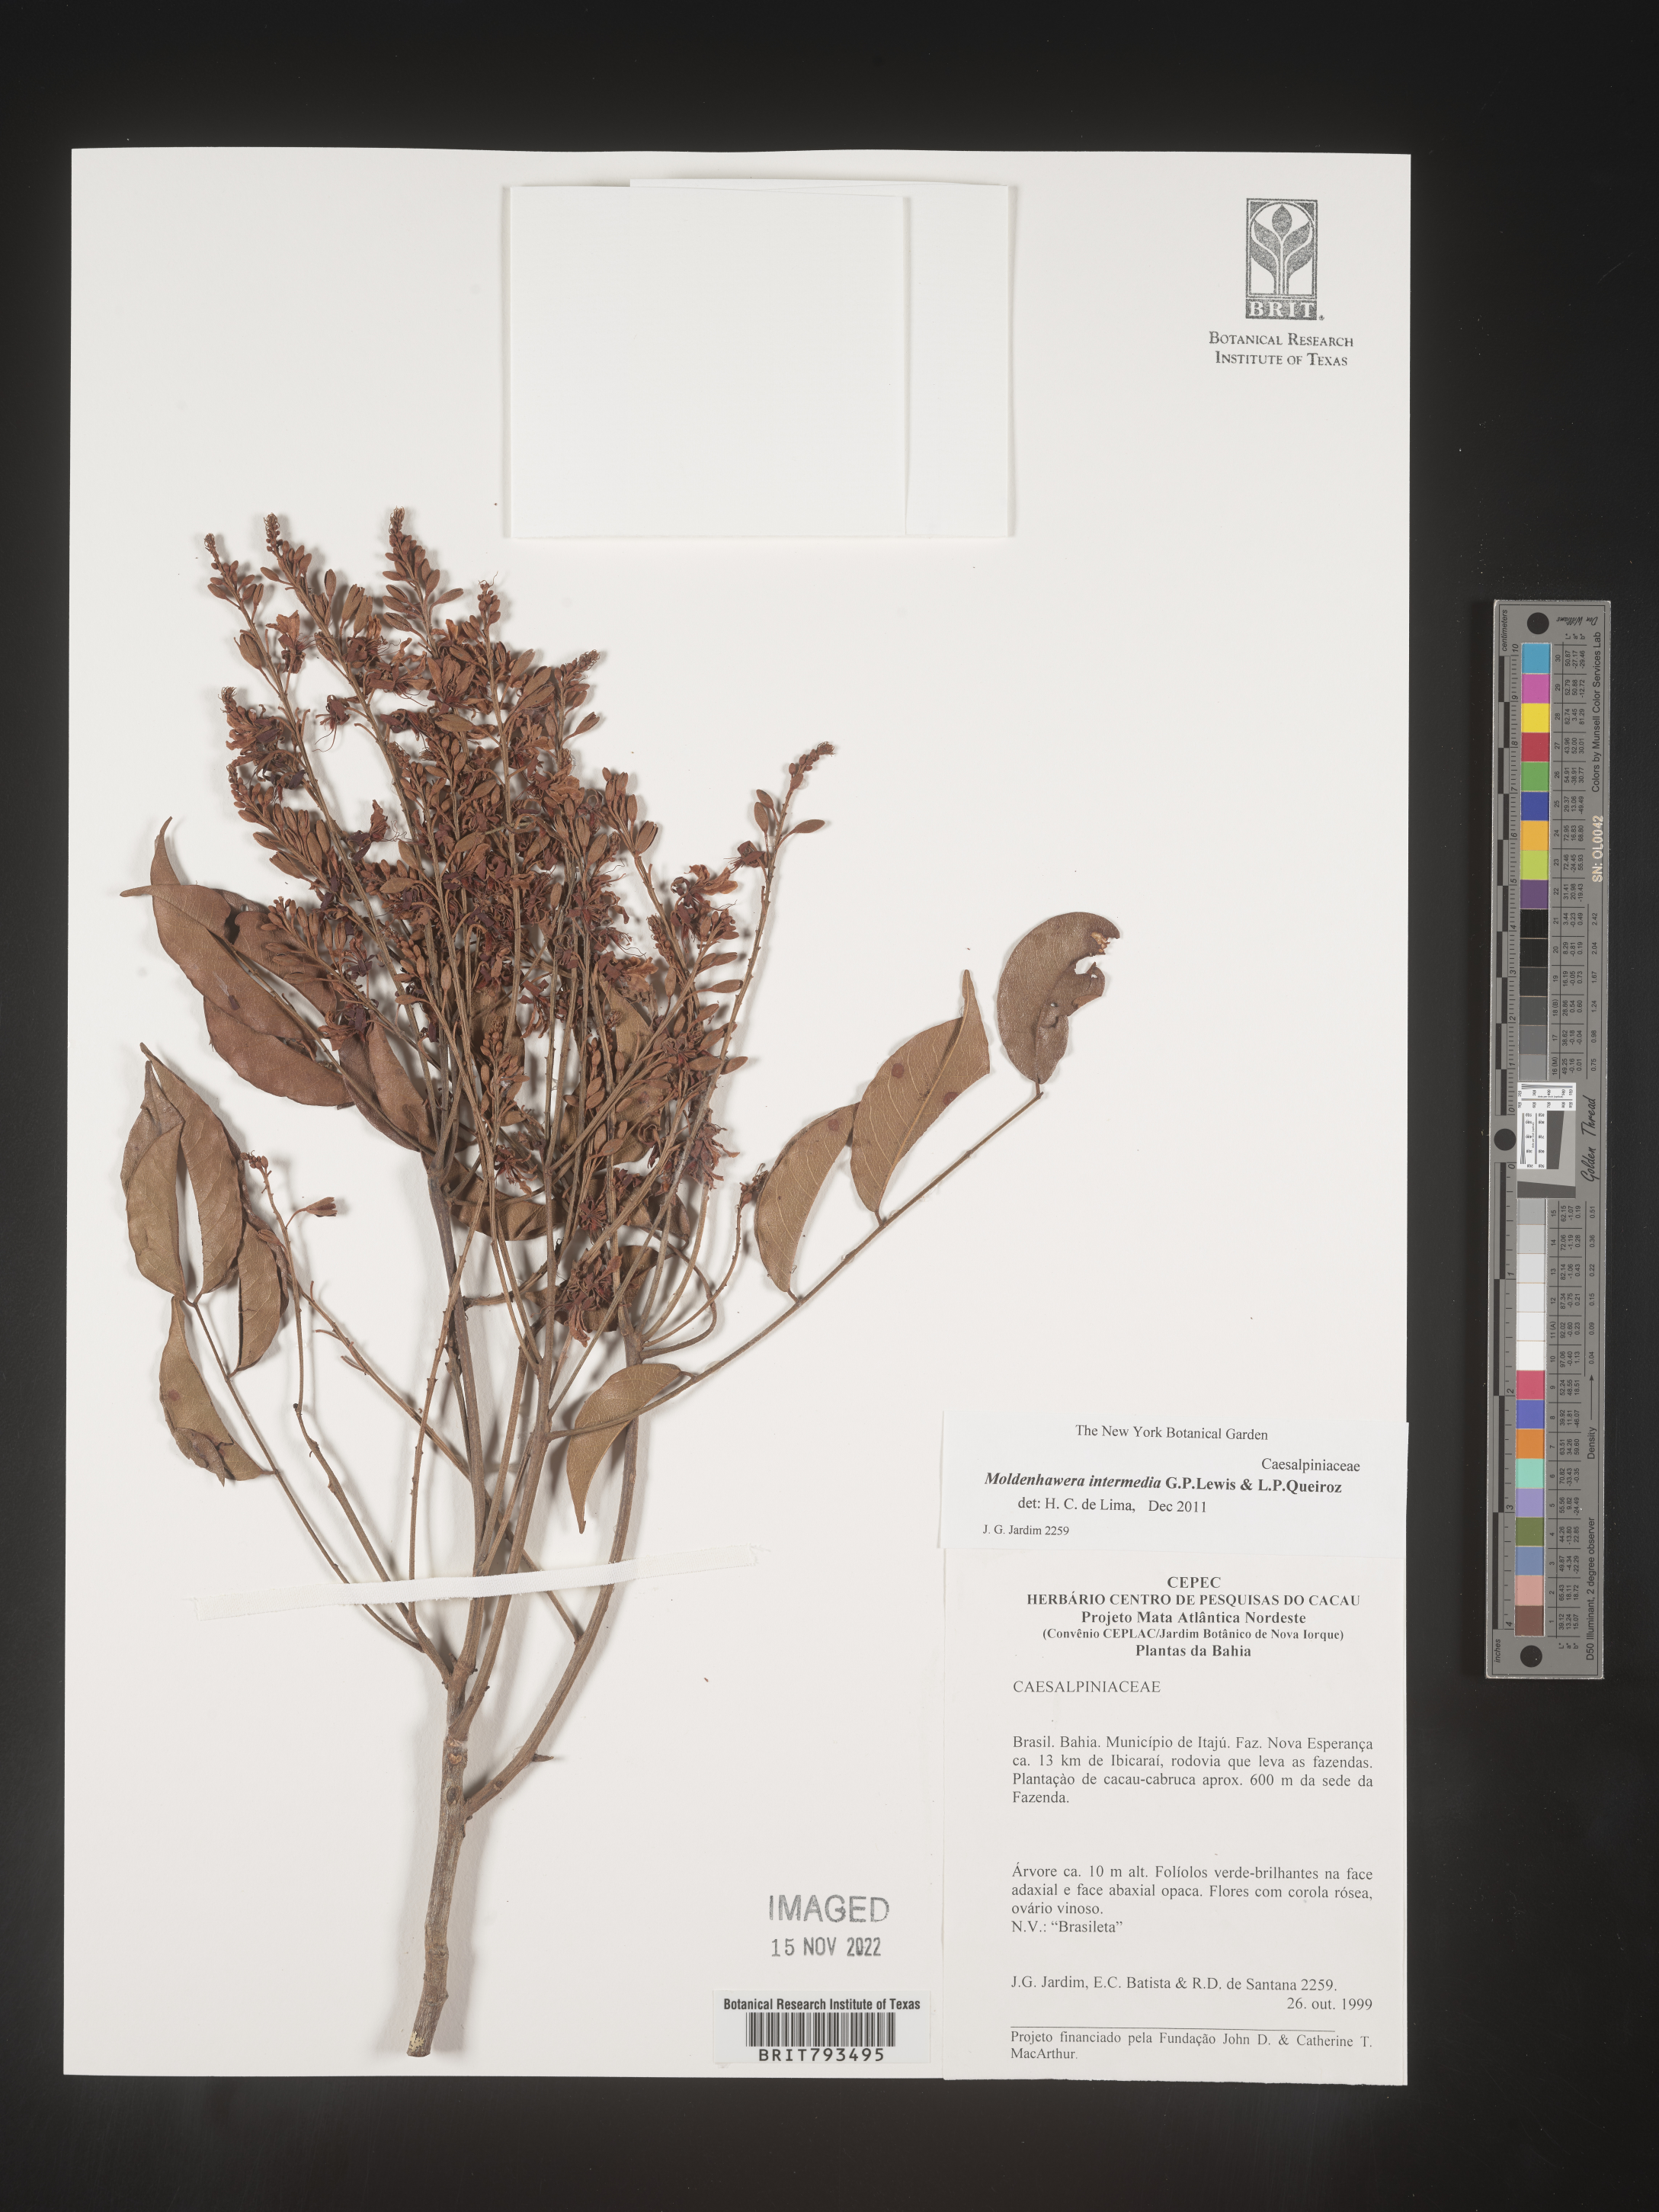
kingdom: Plantae
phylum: Tracheophyta
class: Magnoliopsida
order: Fabales
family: Fabaceae
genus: Moldenhawera
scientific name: Moldenhawera intermedia
